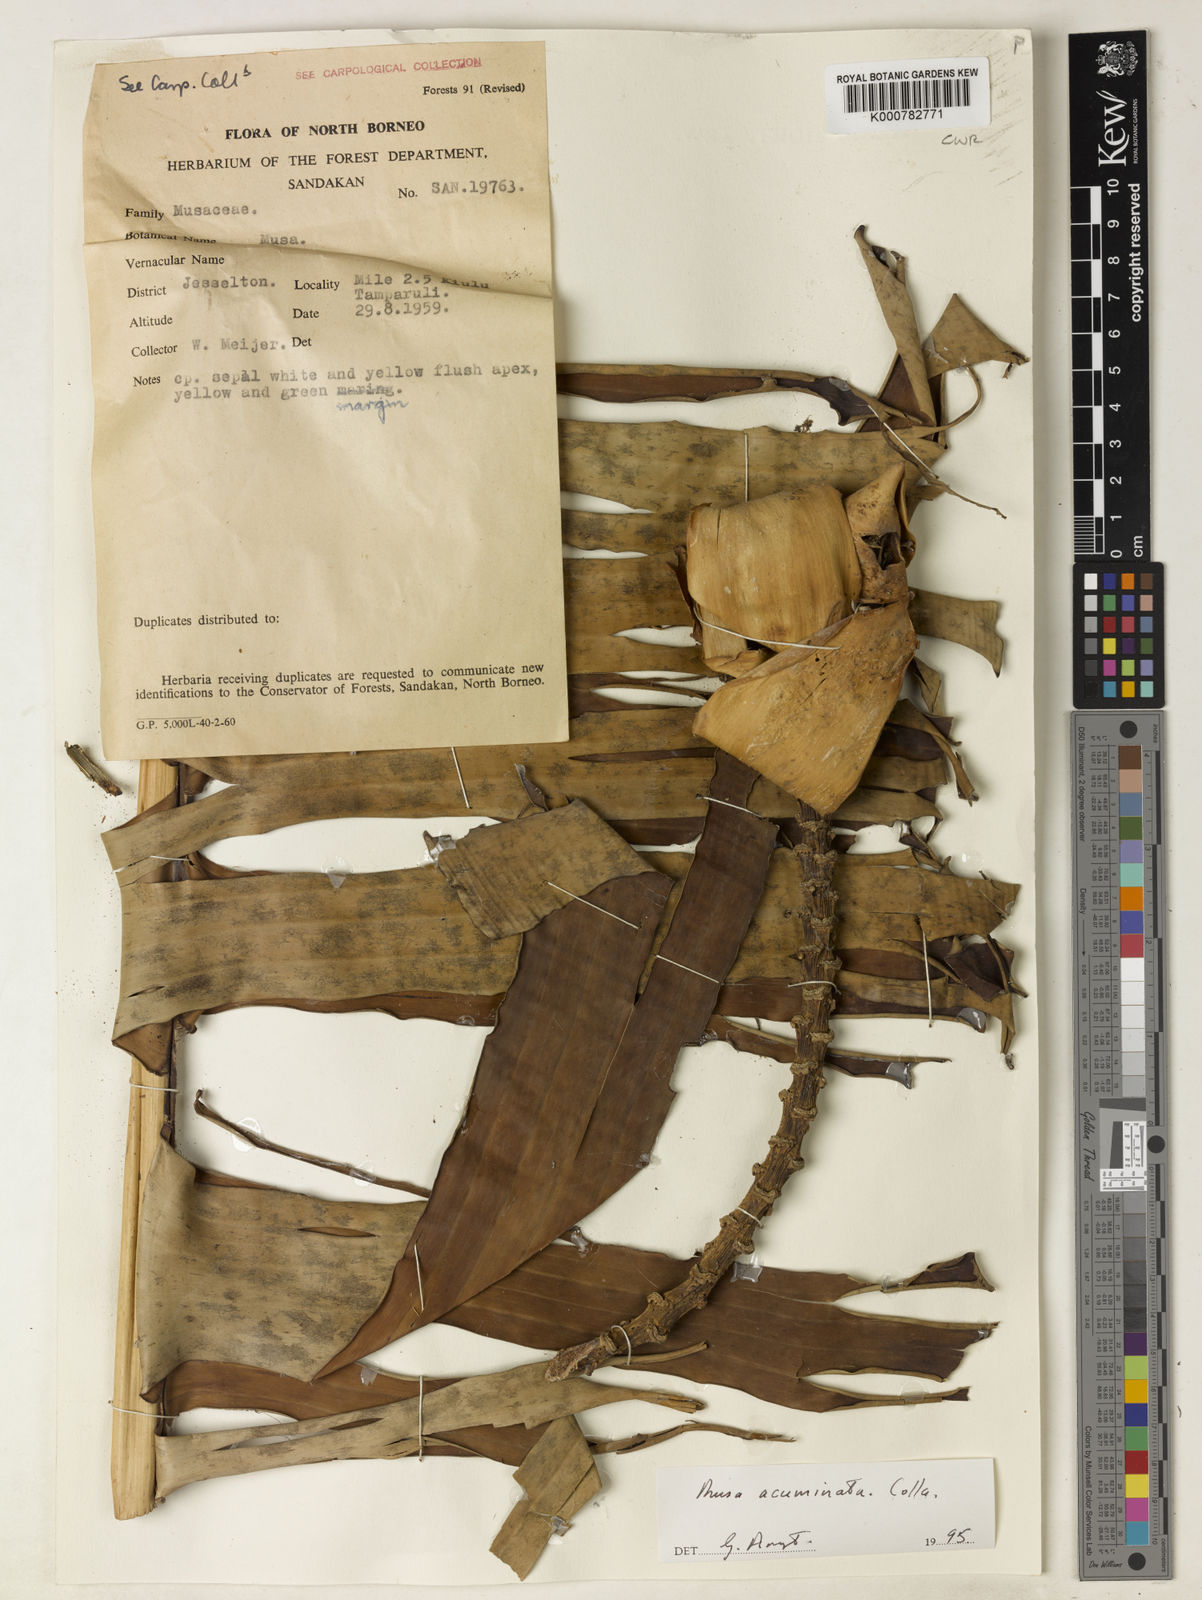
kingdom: Plantae
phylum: Tracheophyta
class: Liliopsida
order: Zingiberales
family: Musaceae
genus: Musa
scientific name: Musa acuminata
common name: Edible banana
